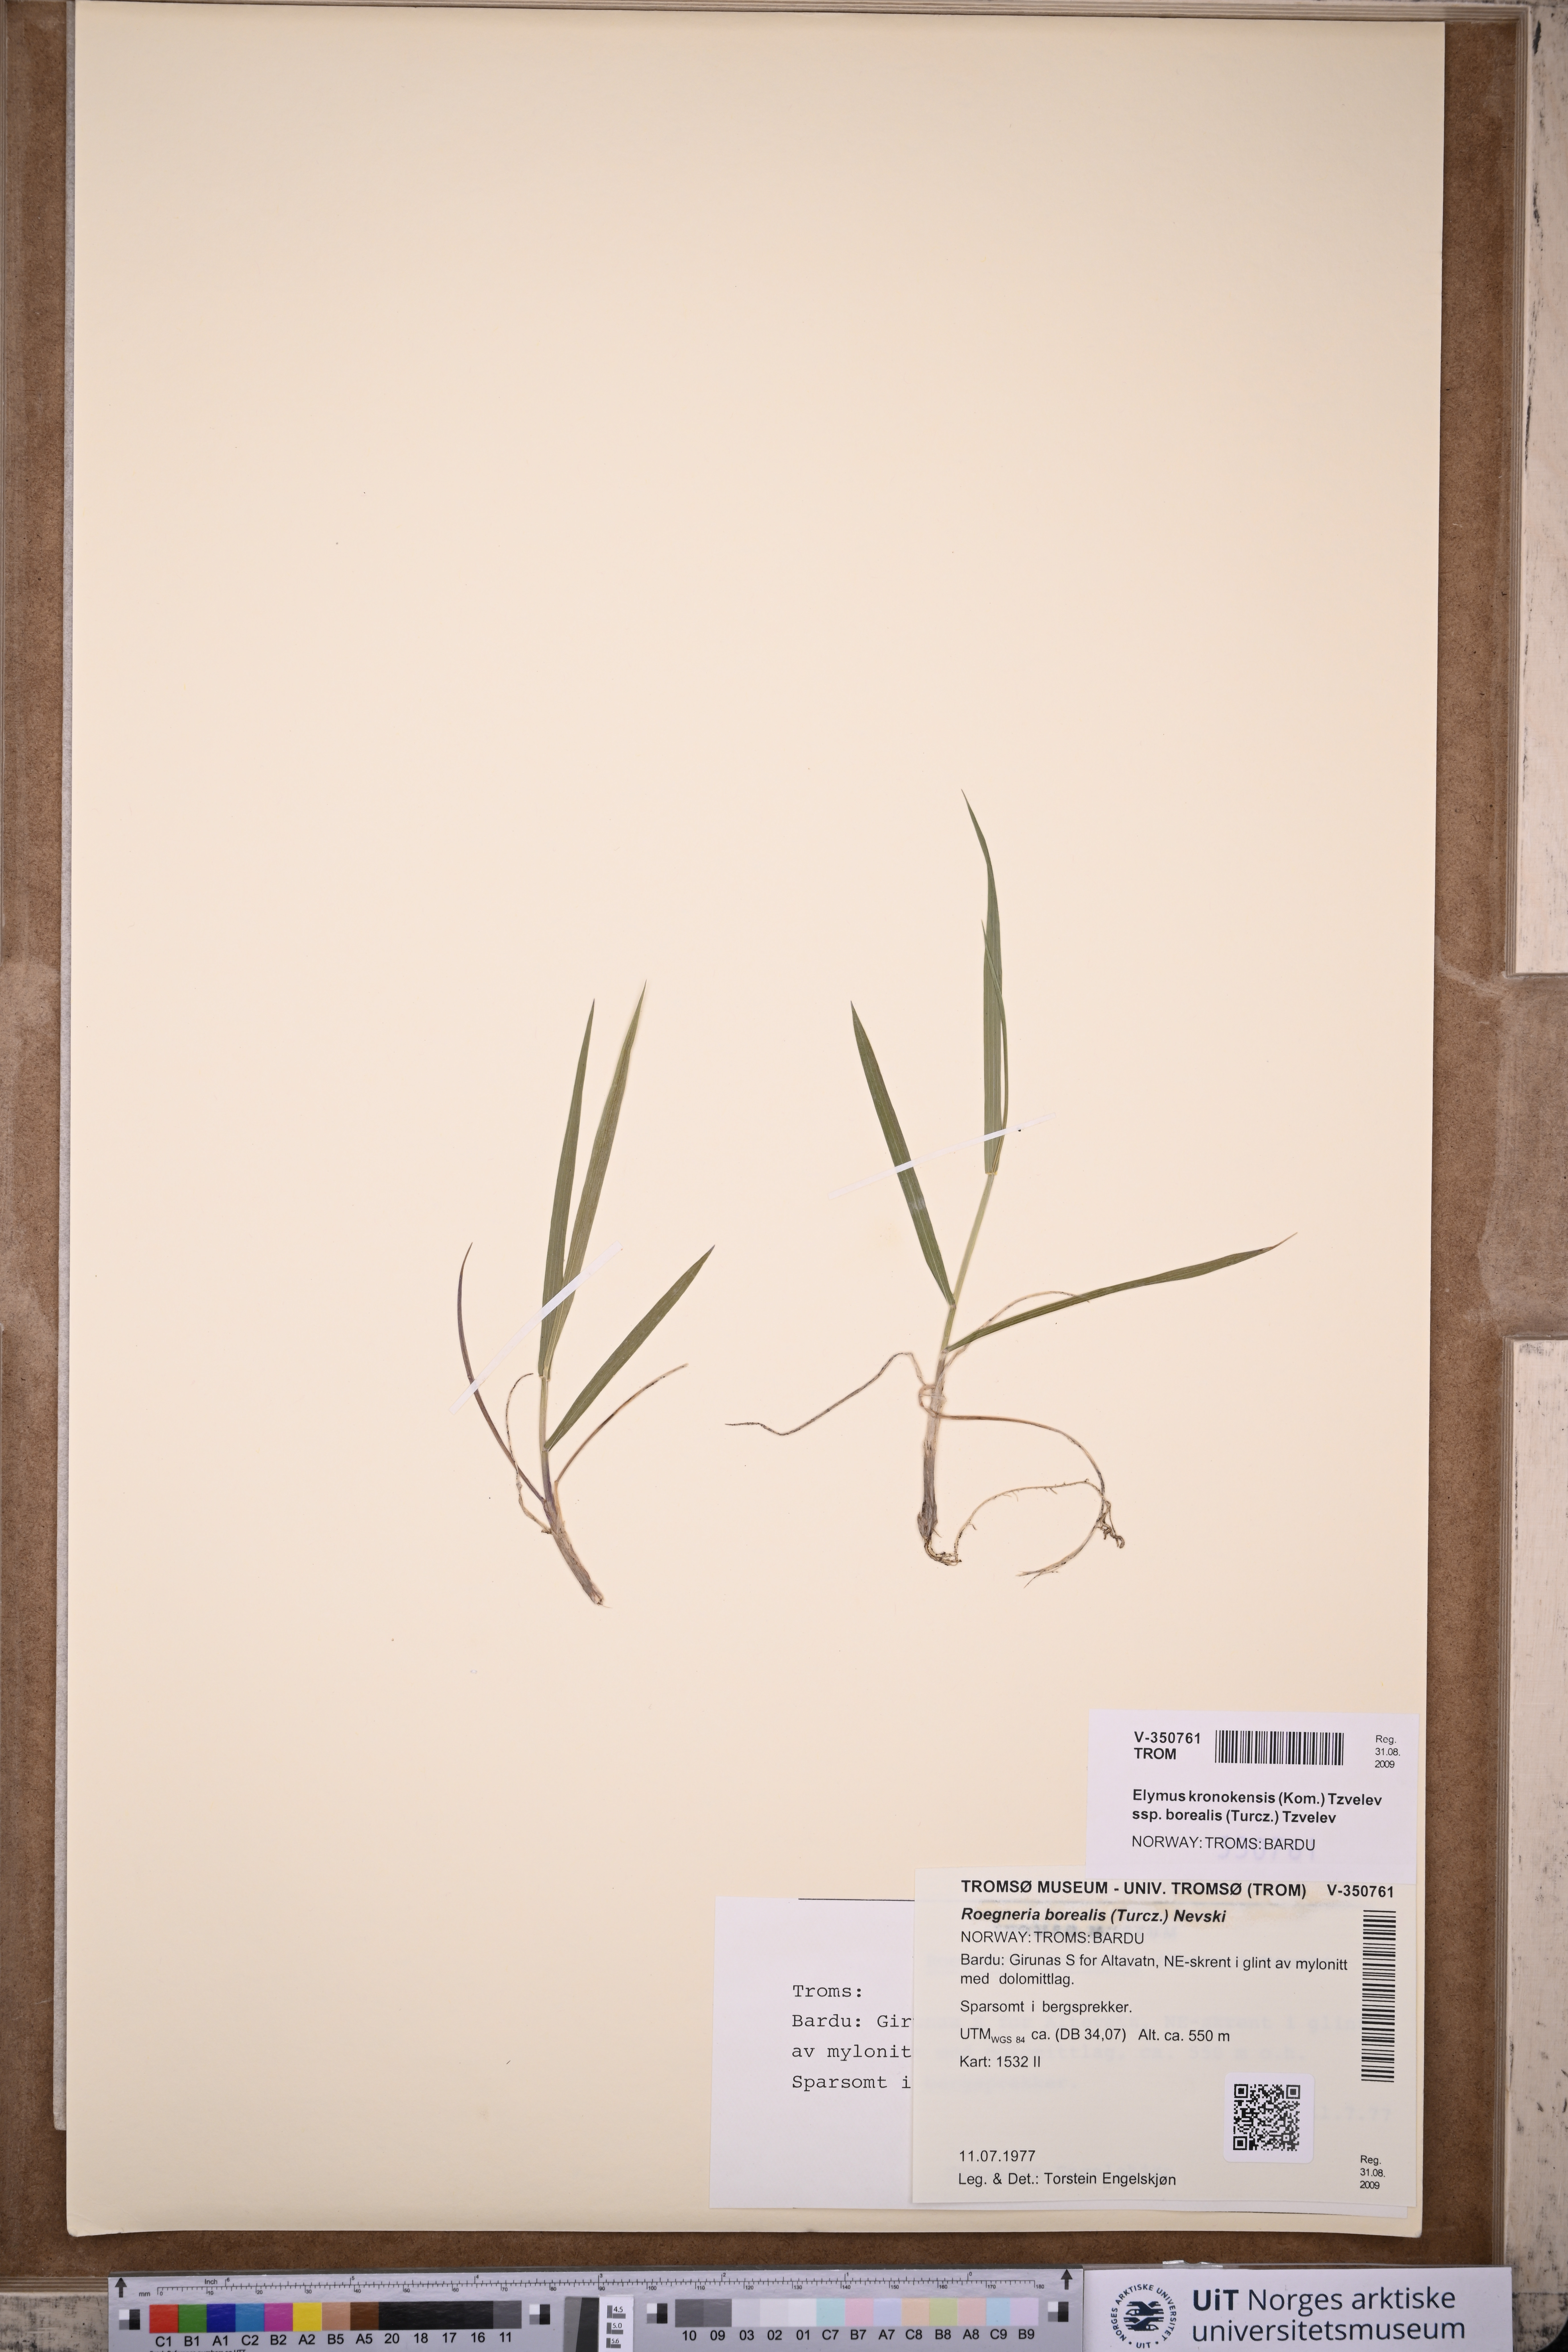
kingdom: Plantae
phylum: Tracheophyta
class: Liliopsida
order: Poales
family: Poaceae
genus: Elymus
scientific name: Elymus macrourus
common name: Northern wheatgrass
